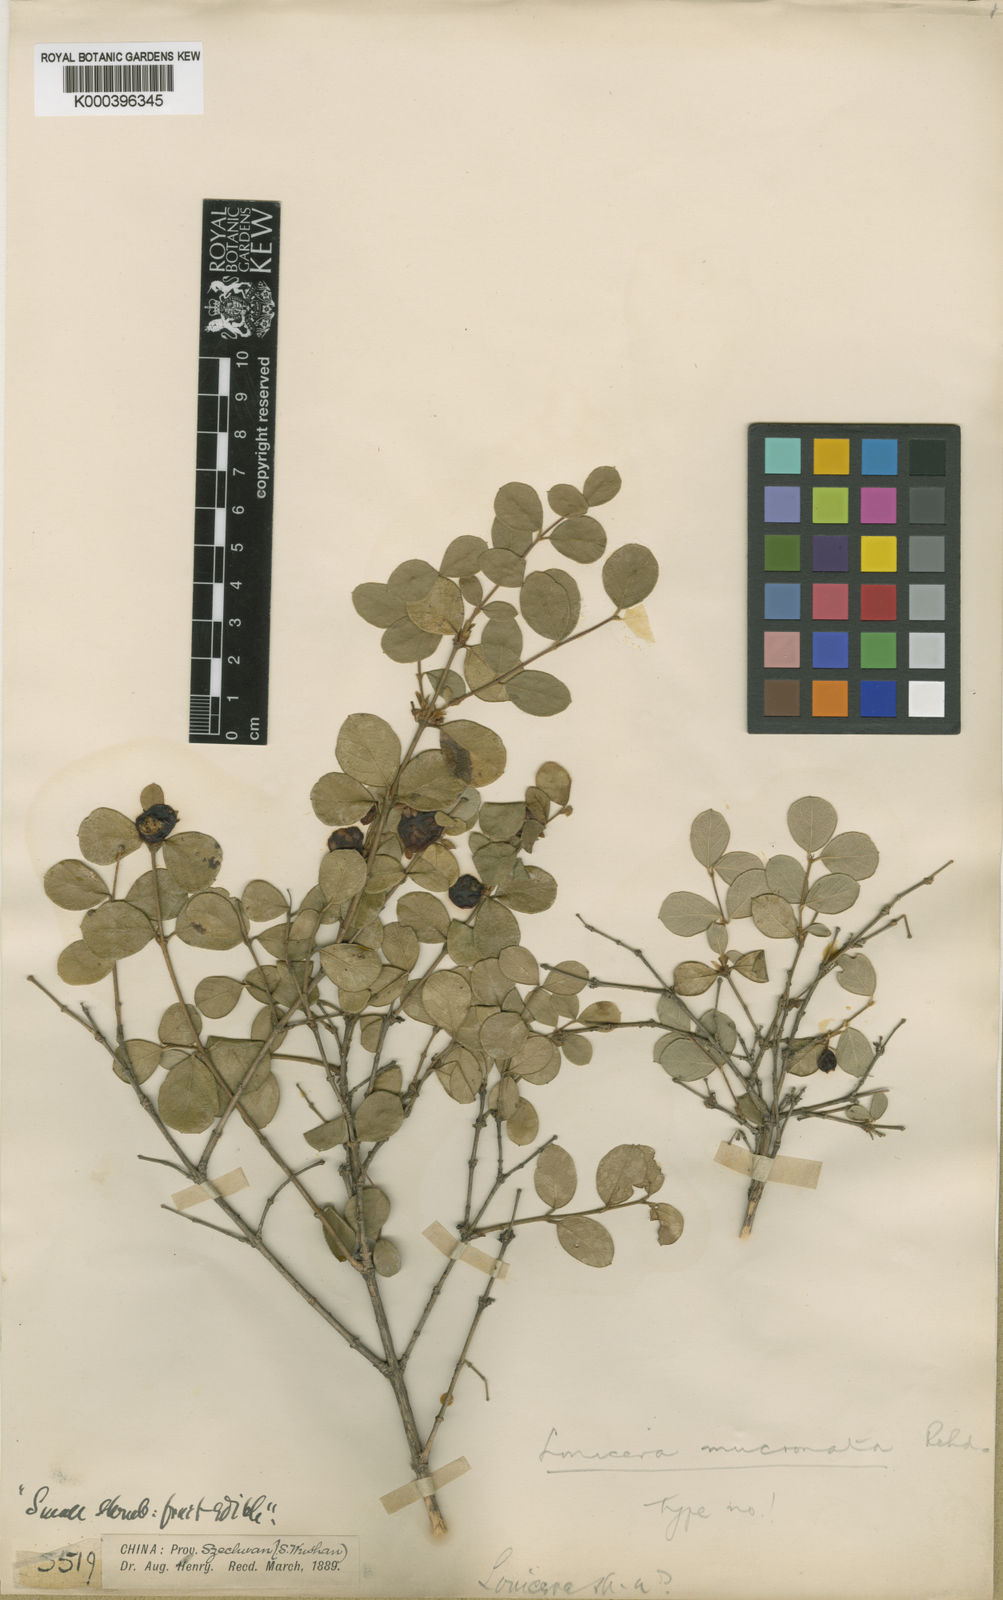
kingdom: Plantae
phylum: Tracheophyta
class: Magnoliopsida
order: Dipsacales
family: Caprifoliaceae
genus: Lonicera
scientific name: Lonicera mucronata
